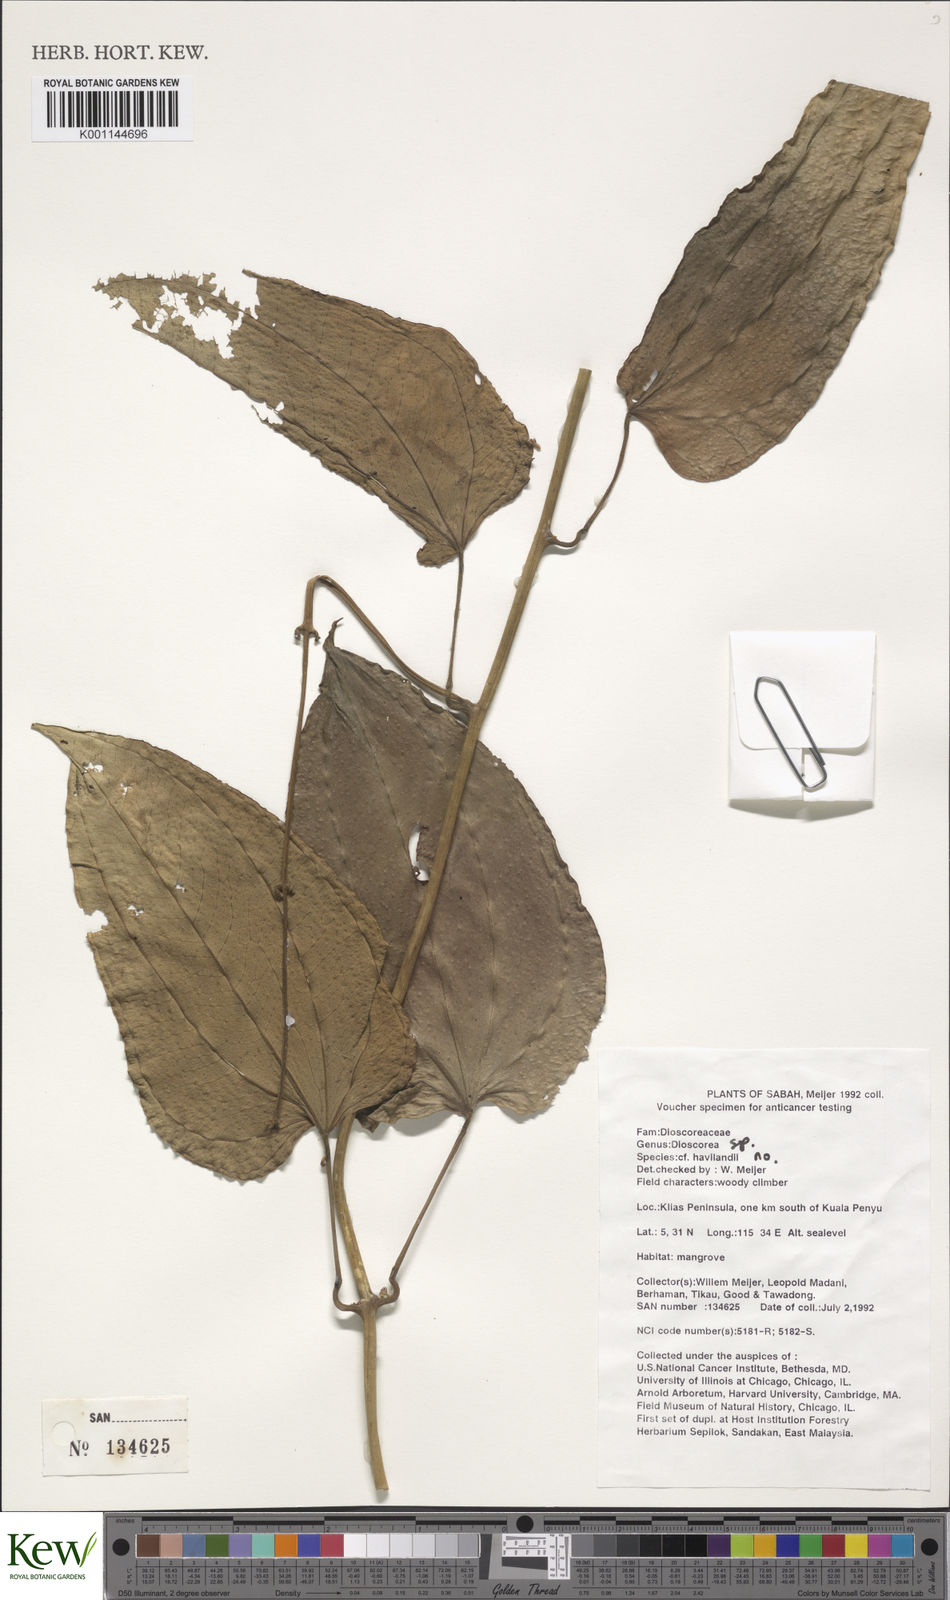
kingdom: Plantae
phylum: Tracheophyta
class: Liliopsida
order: Dioscoreales
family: Dioscoreaceae
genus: Dioscorea
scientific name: Dioscorea
